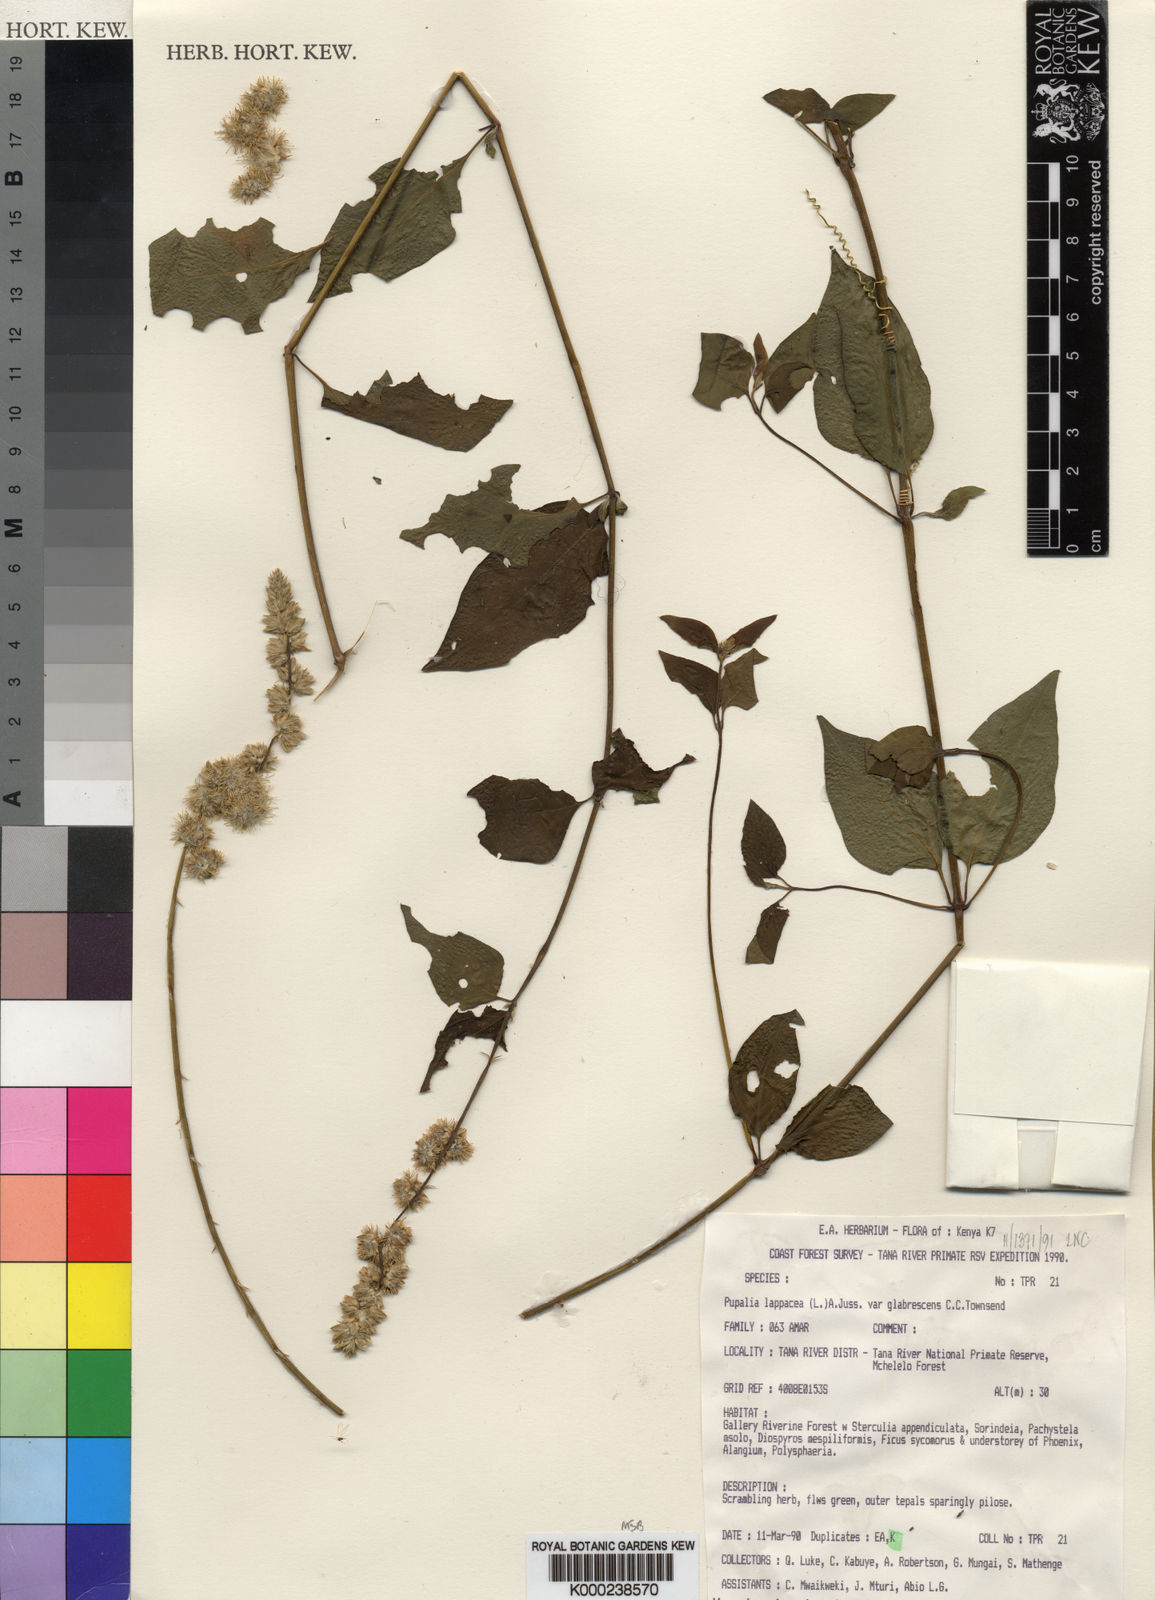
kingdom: Plantae
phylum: Tracheophyta
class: Magnoliopsida
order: Caryophyllales
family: Amaranthaceae
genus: Pupalia
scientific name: Pupalia lappacea
